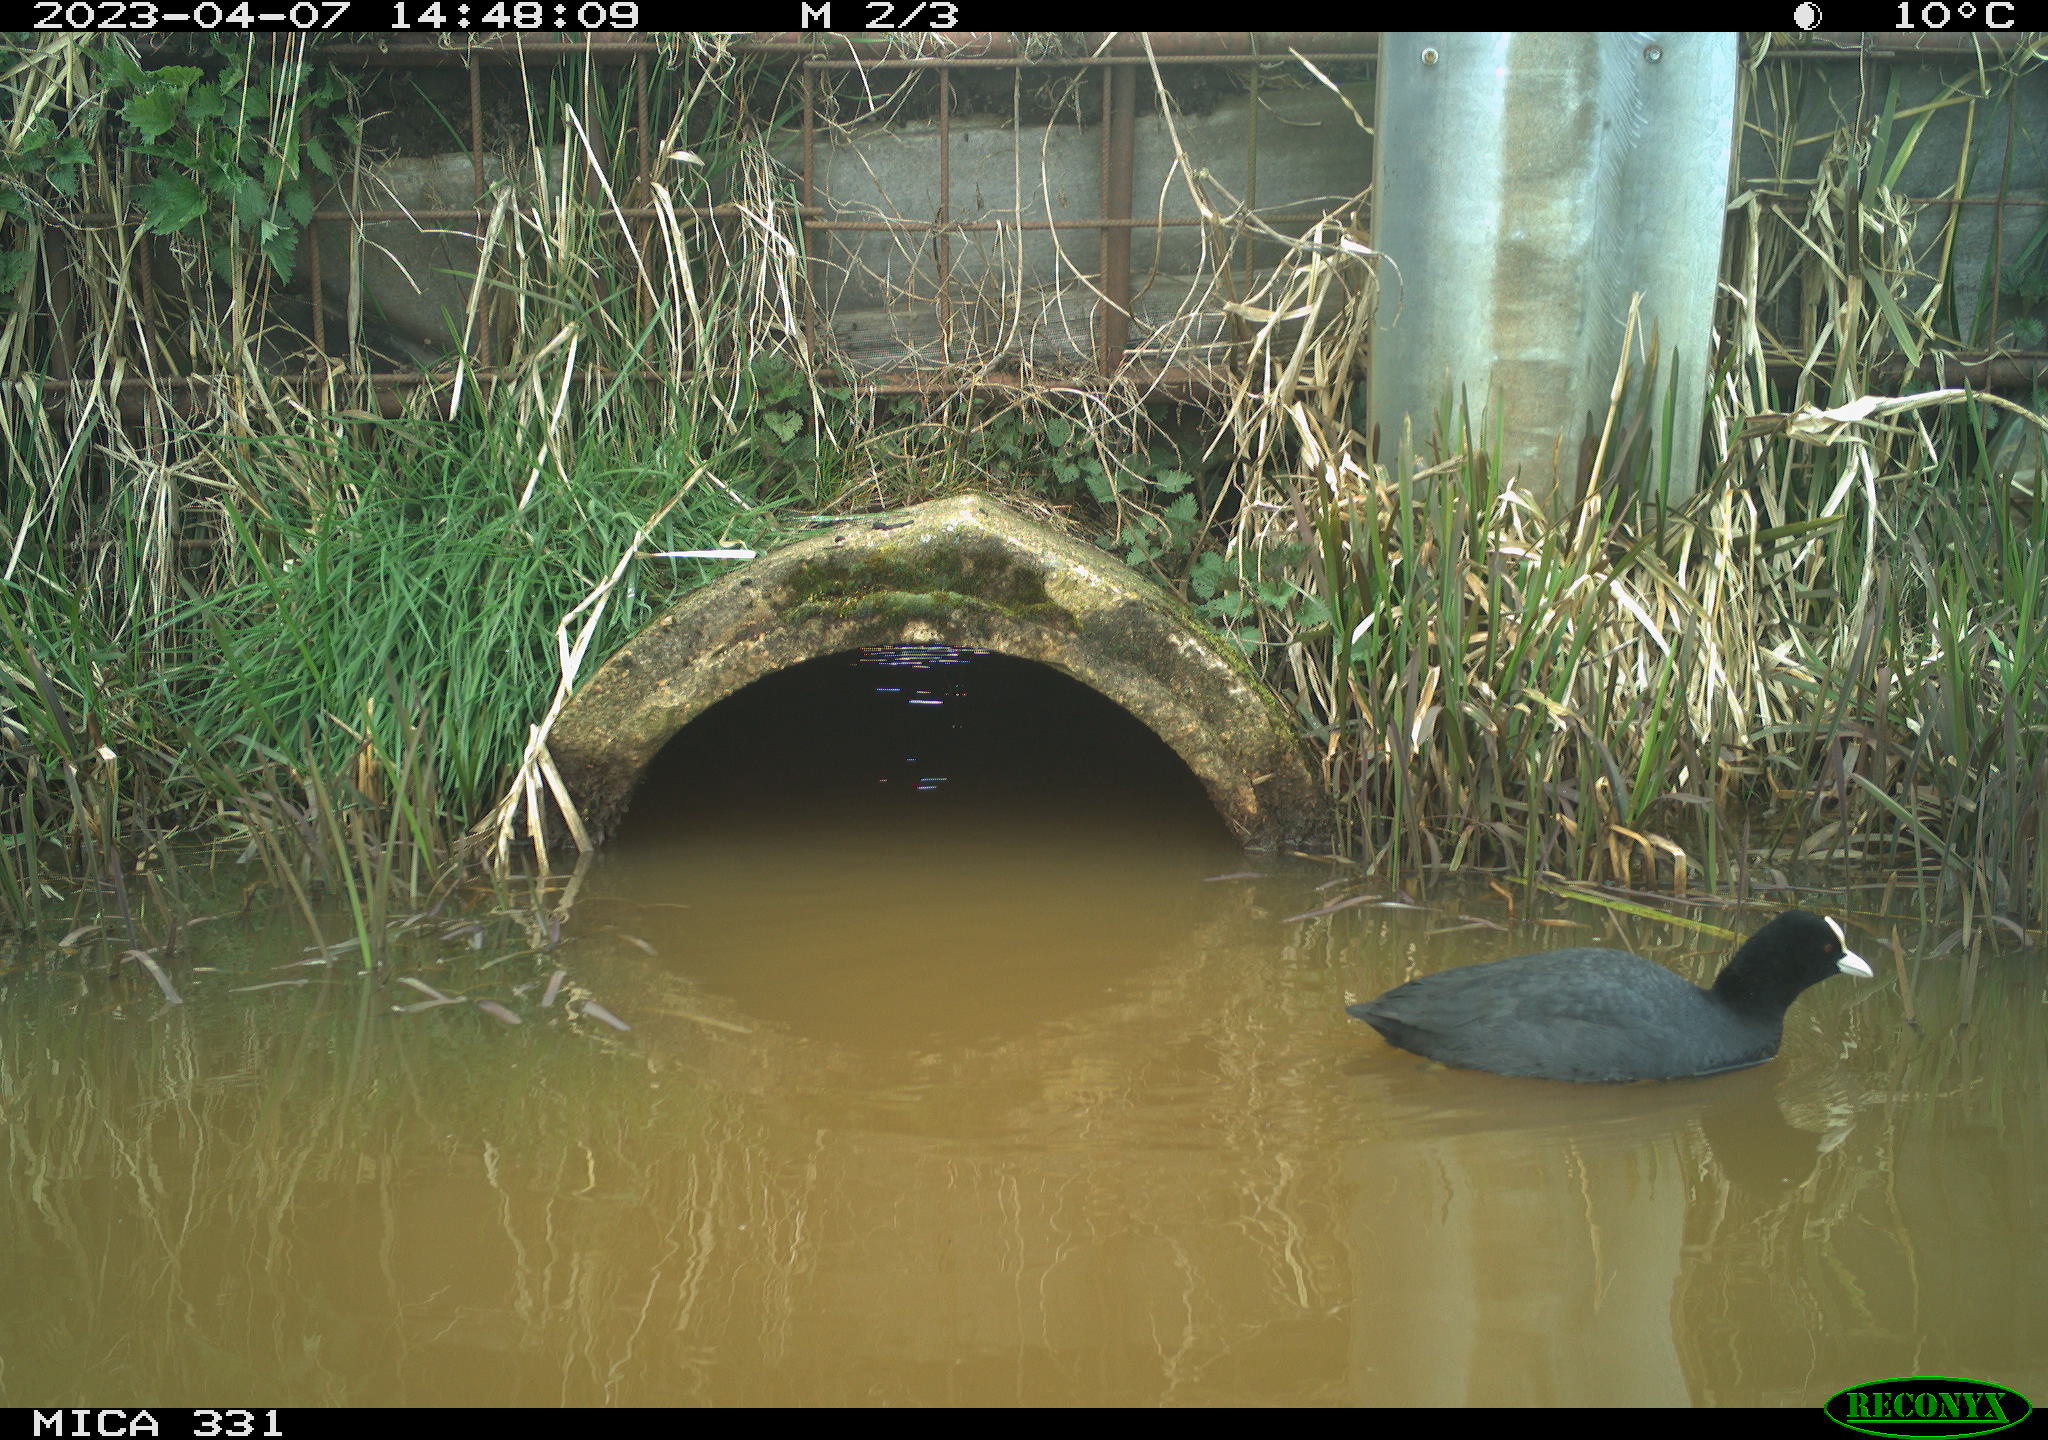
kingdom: Animalia
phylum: Chordata
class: Aves
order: Gruiformes
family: Rallidae
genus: Fulica
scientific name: Fulica atra
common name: Eurasian coot
